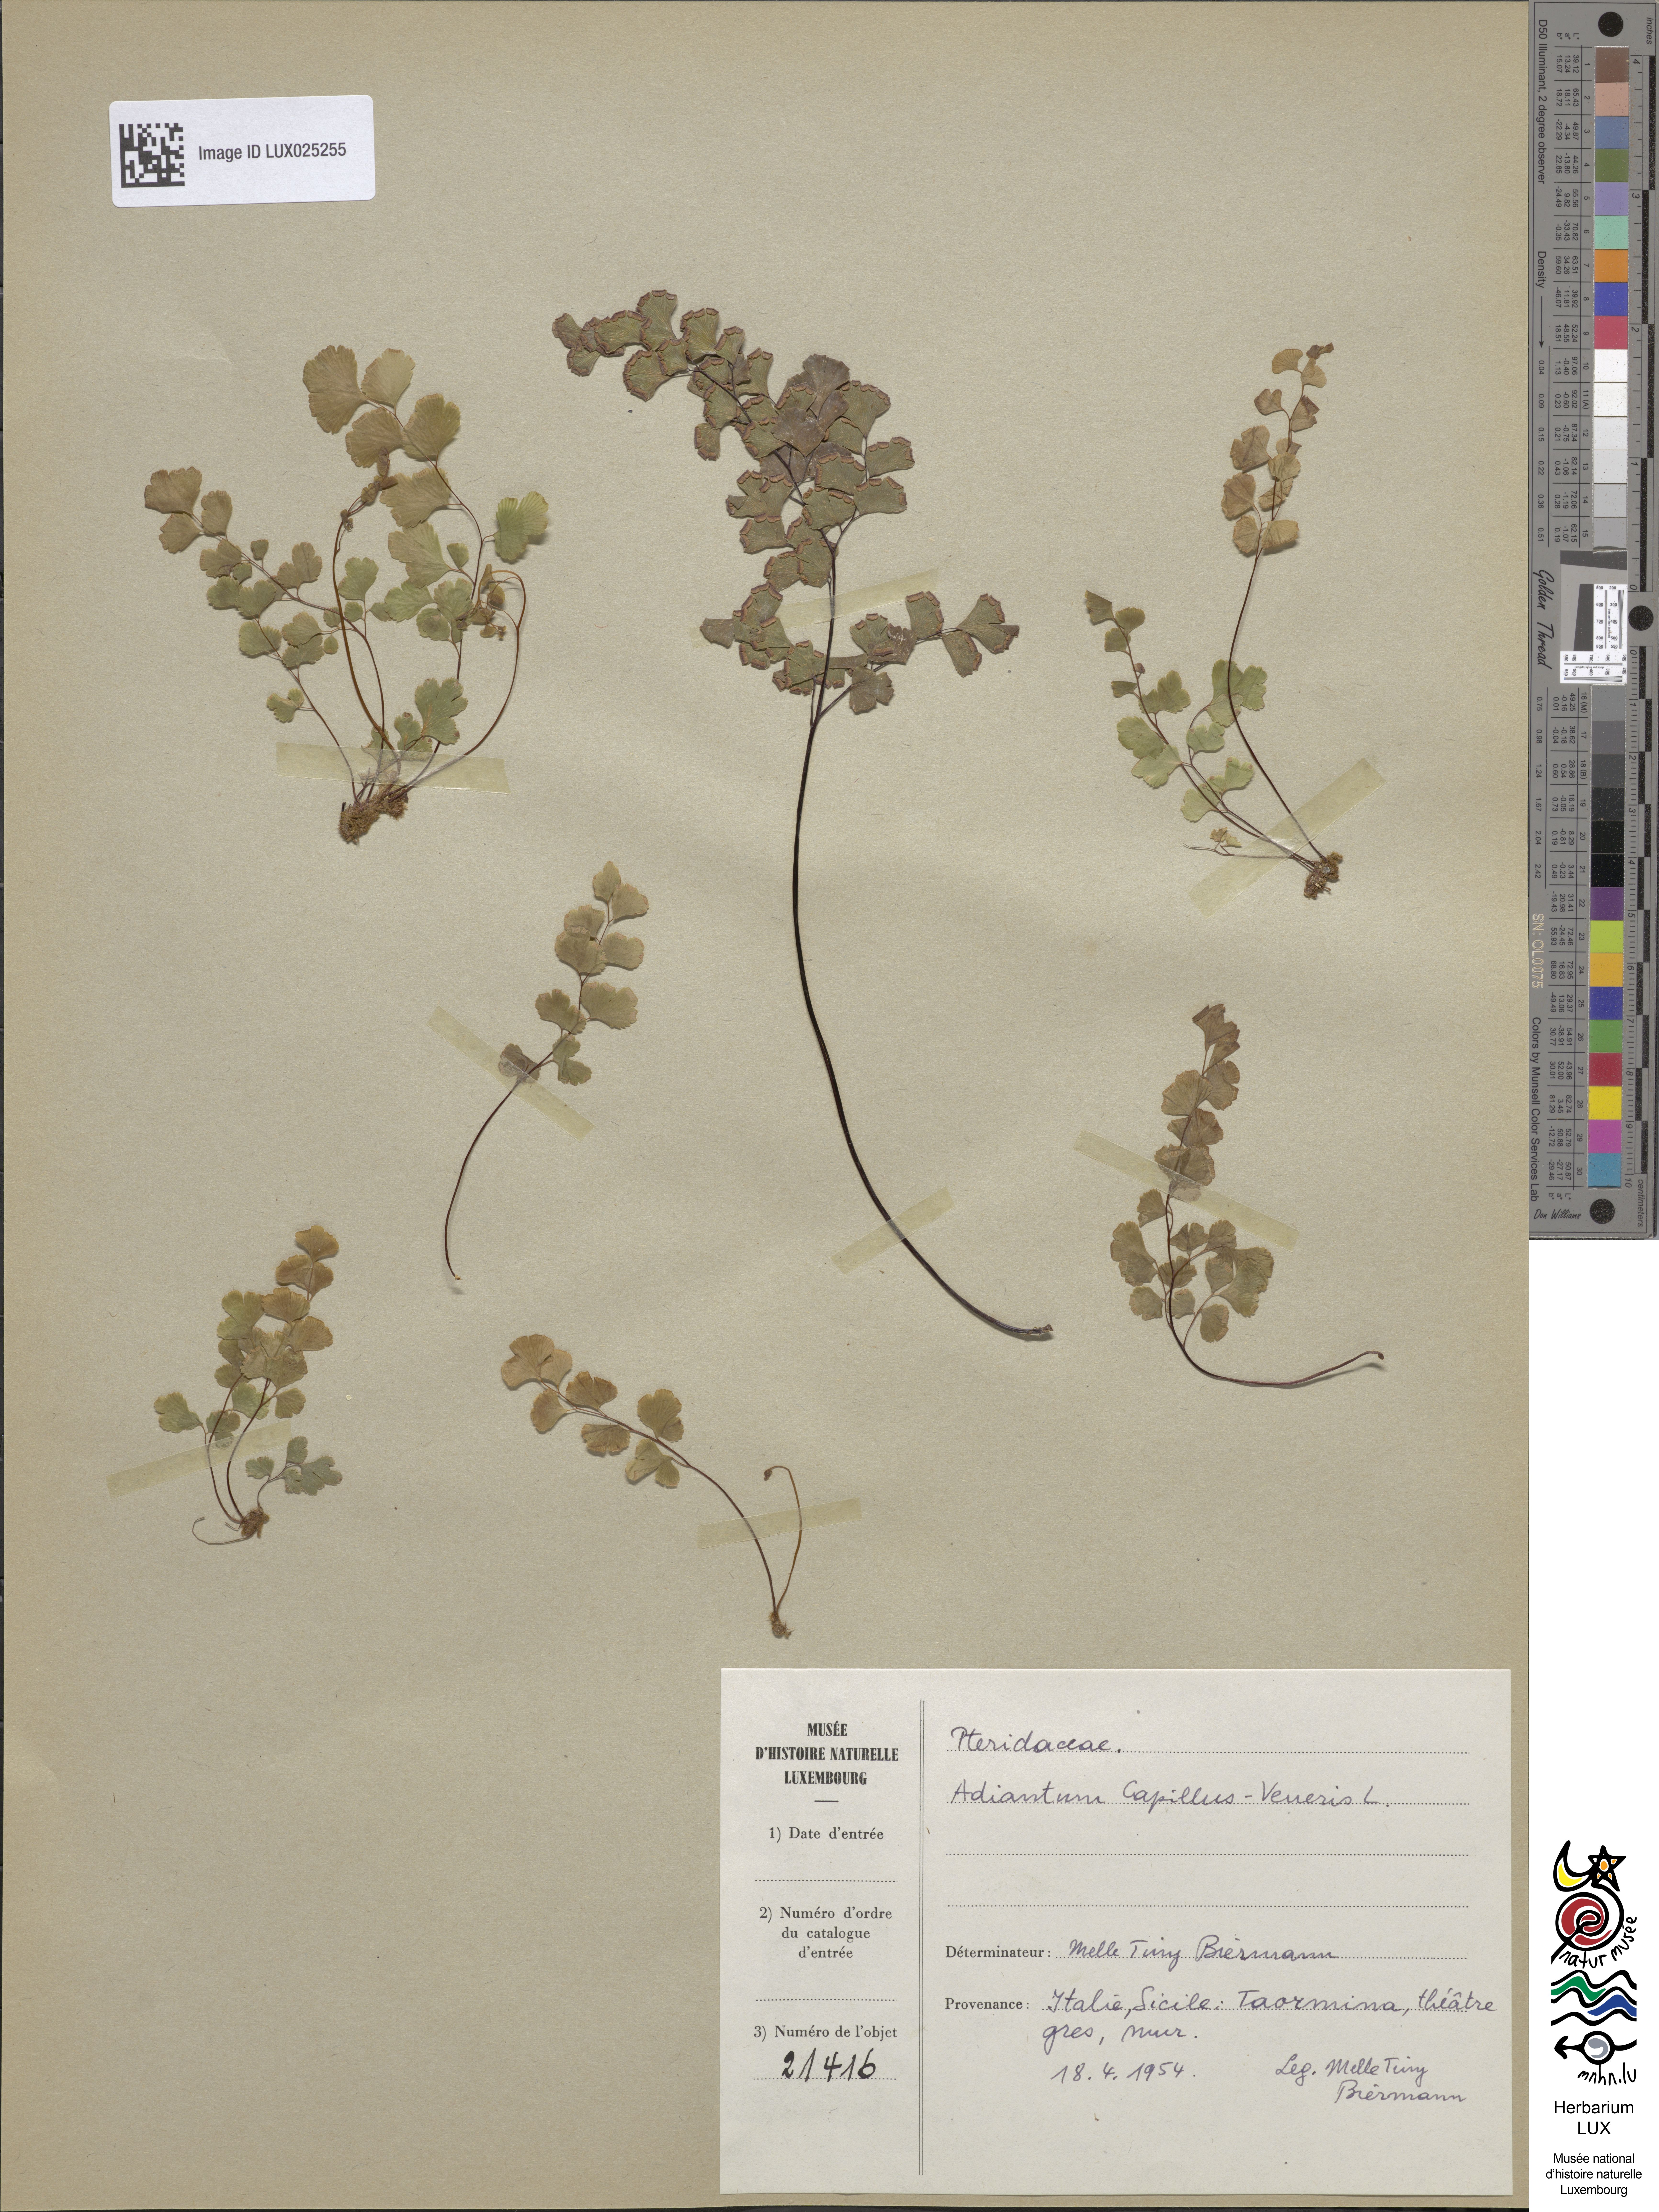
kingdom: Plantae
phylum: Tracheophyta
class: Polypodiopsida
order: Polypodiales
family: Pteridaceae
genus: Adiantum
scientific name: Adiantum capillus-veneris
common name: Maidenhair fern
